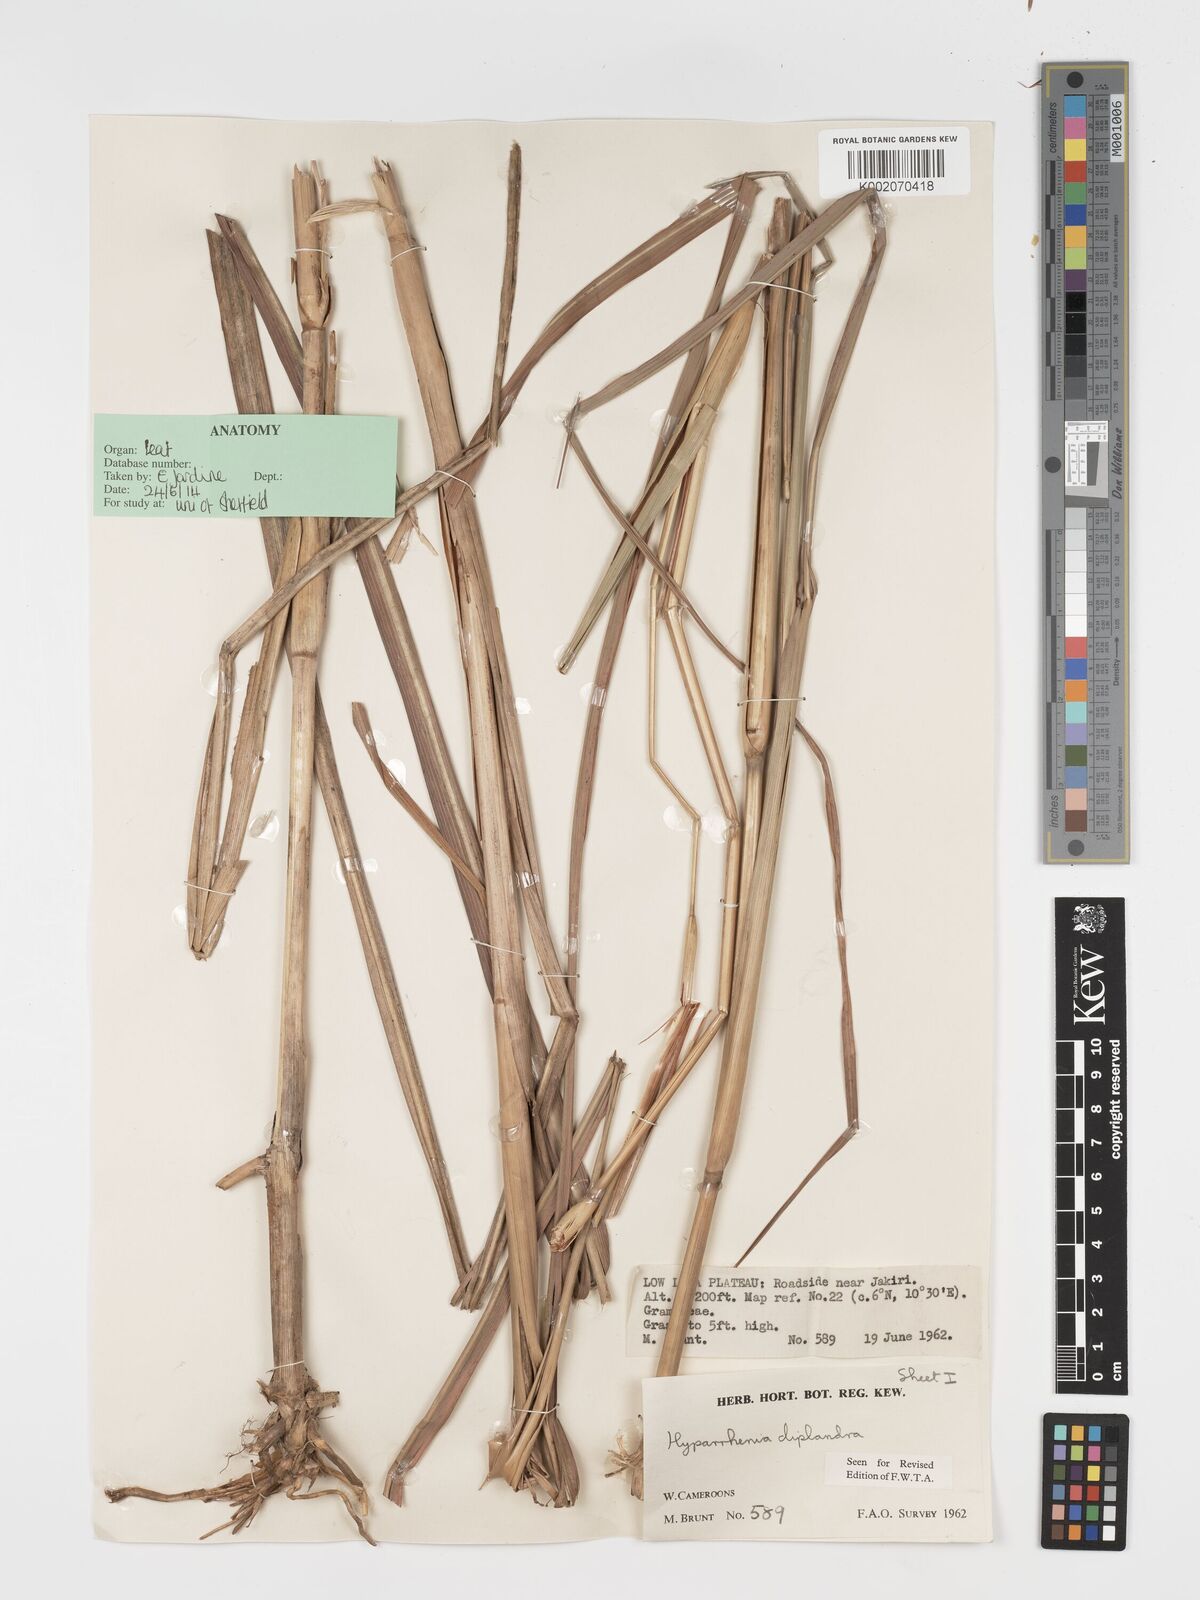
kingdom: Plantae
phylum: Tracheophyta
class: Liliopsida
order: Poales
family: Poaceae
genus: Hyparrhenia
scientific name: Hyparrhenia diplandra
